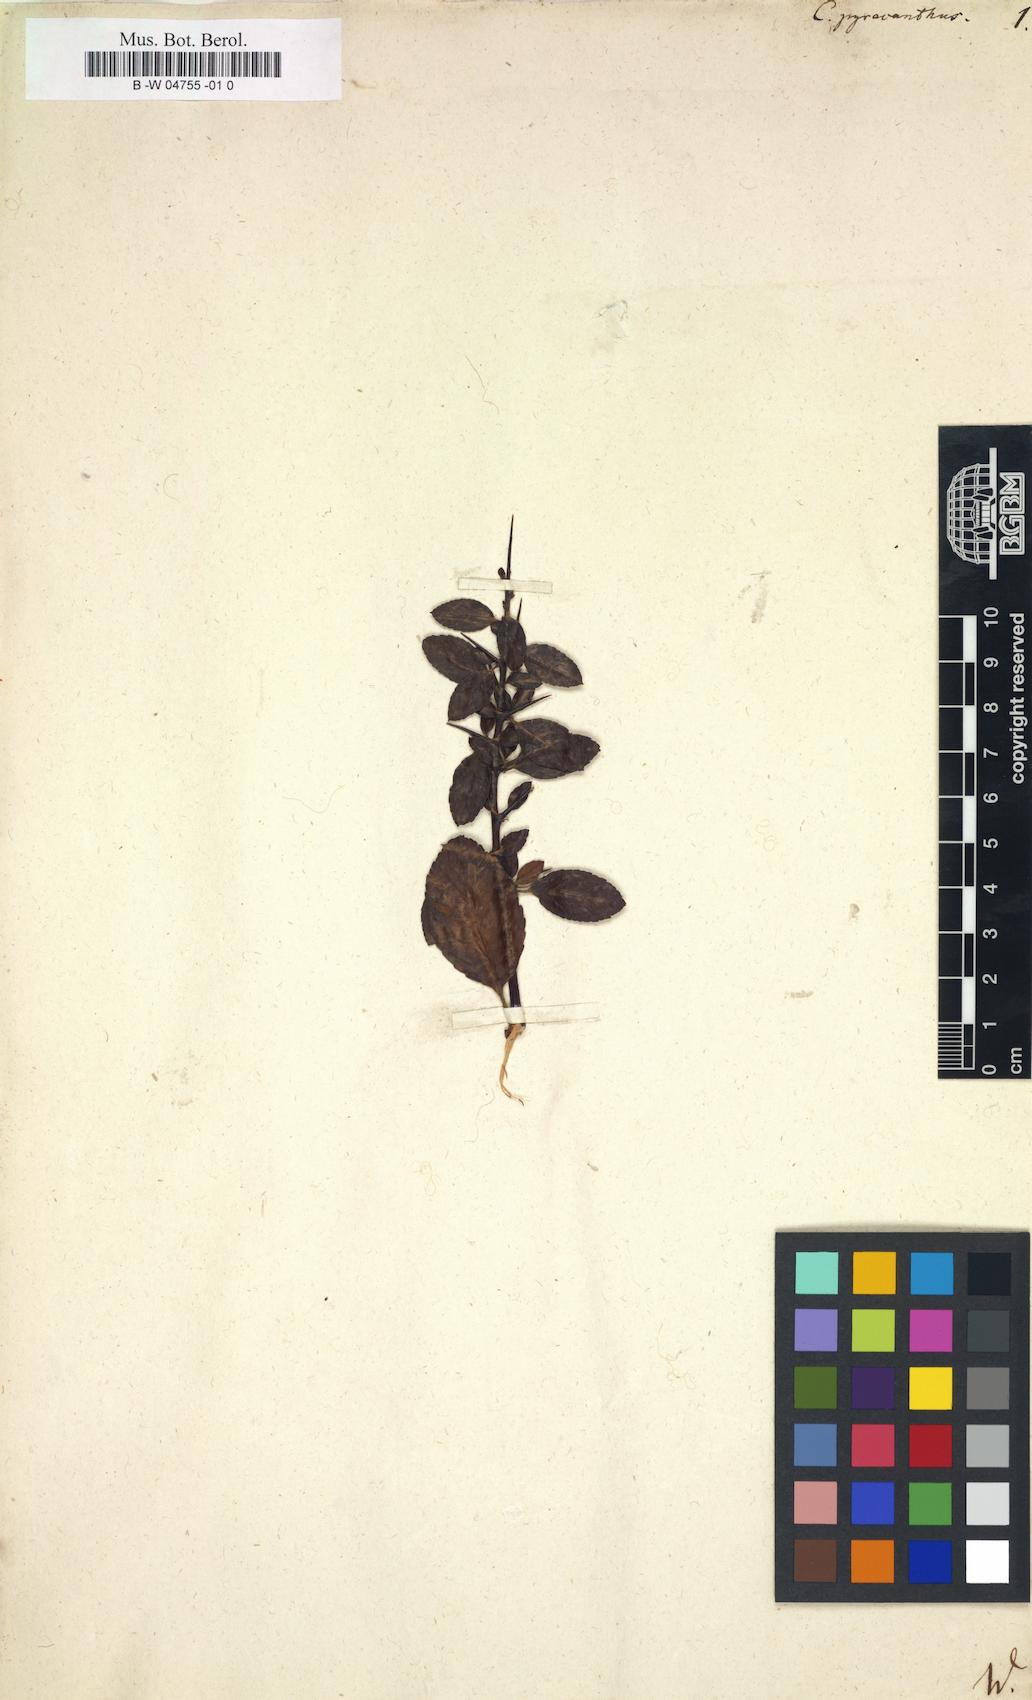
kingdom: Plantae
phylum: Tracheophyta
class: Magnoliopsida
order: Celastrales
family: Celastraceae
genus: Putterlickia
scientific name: Putterlickia pyracantha
